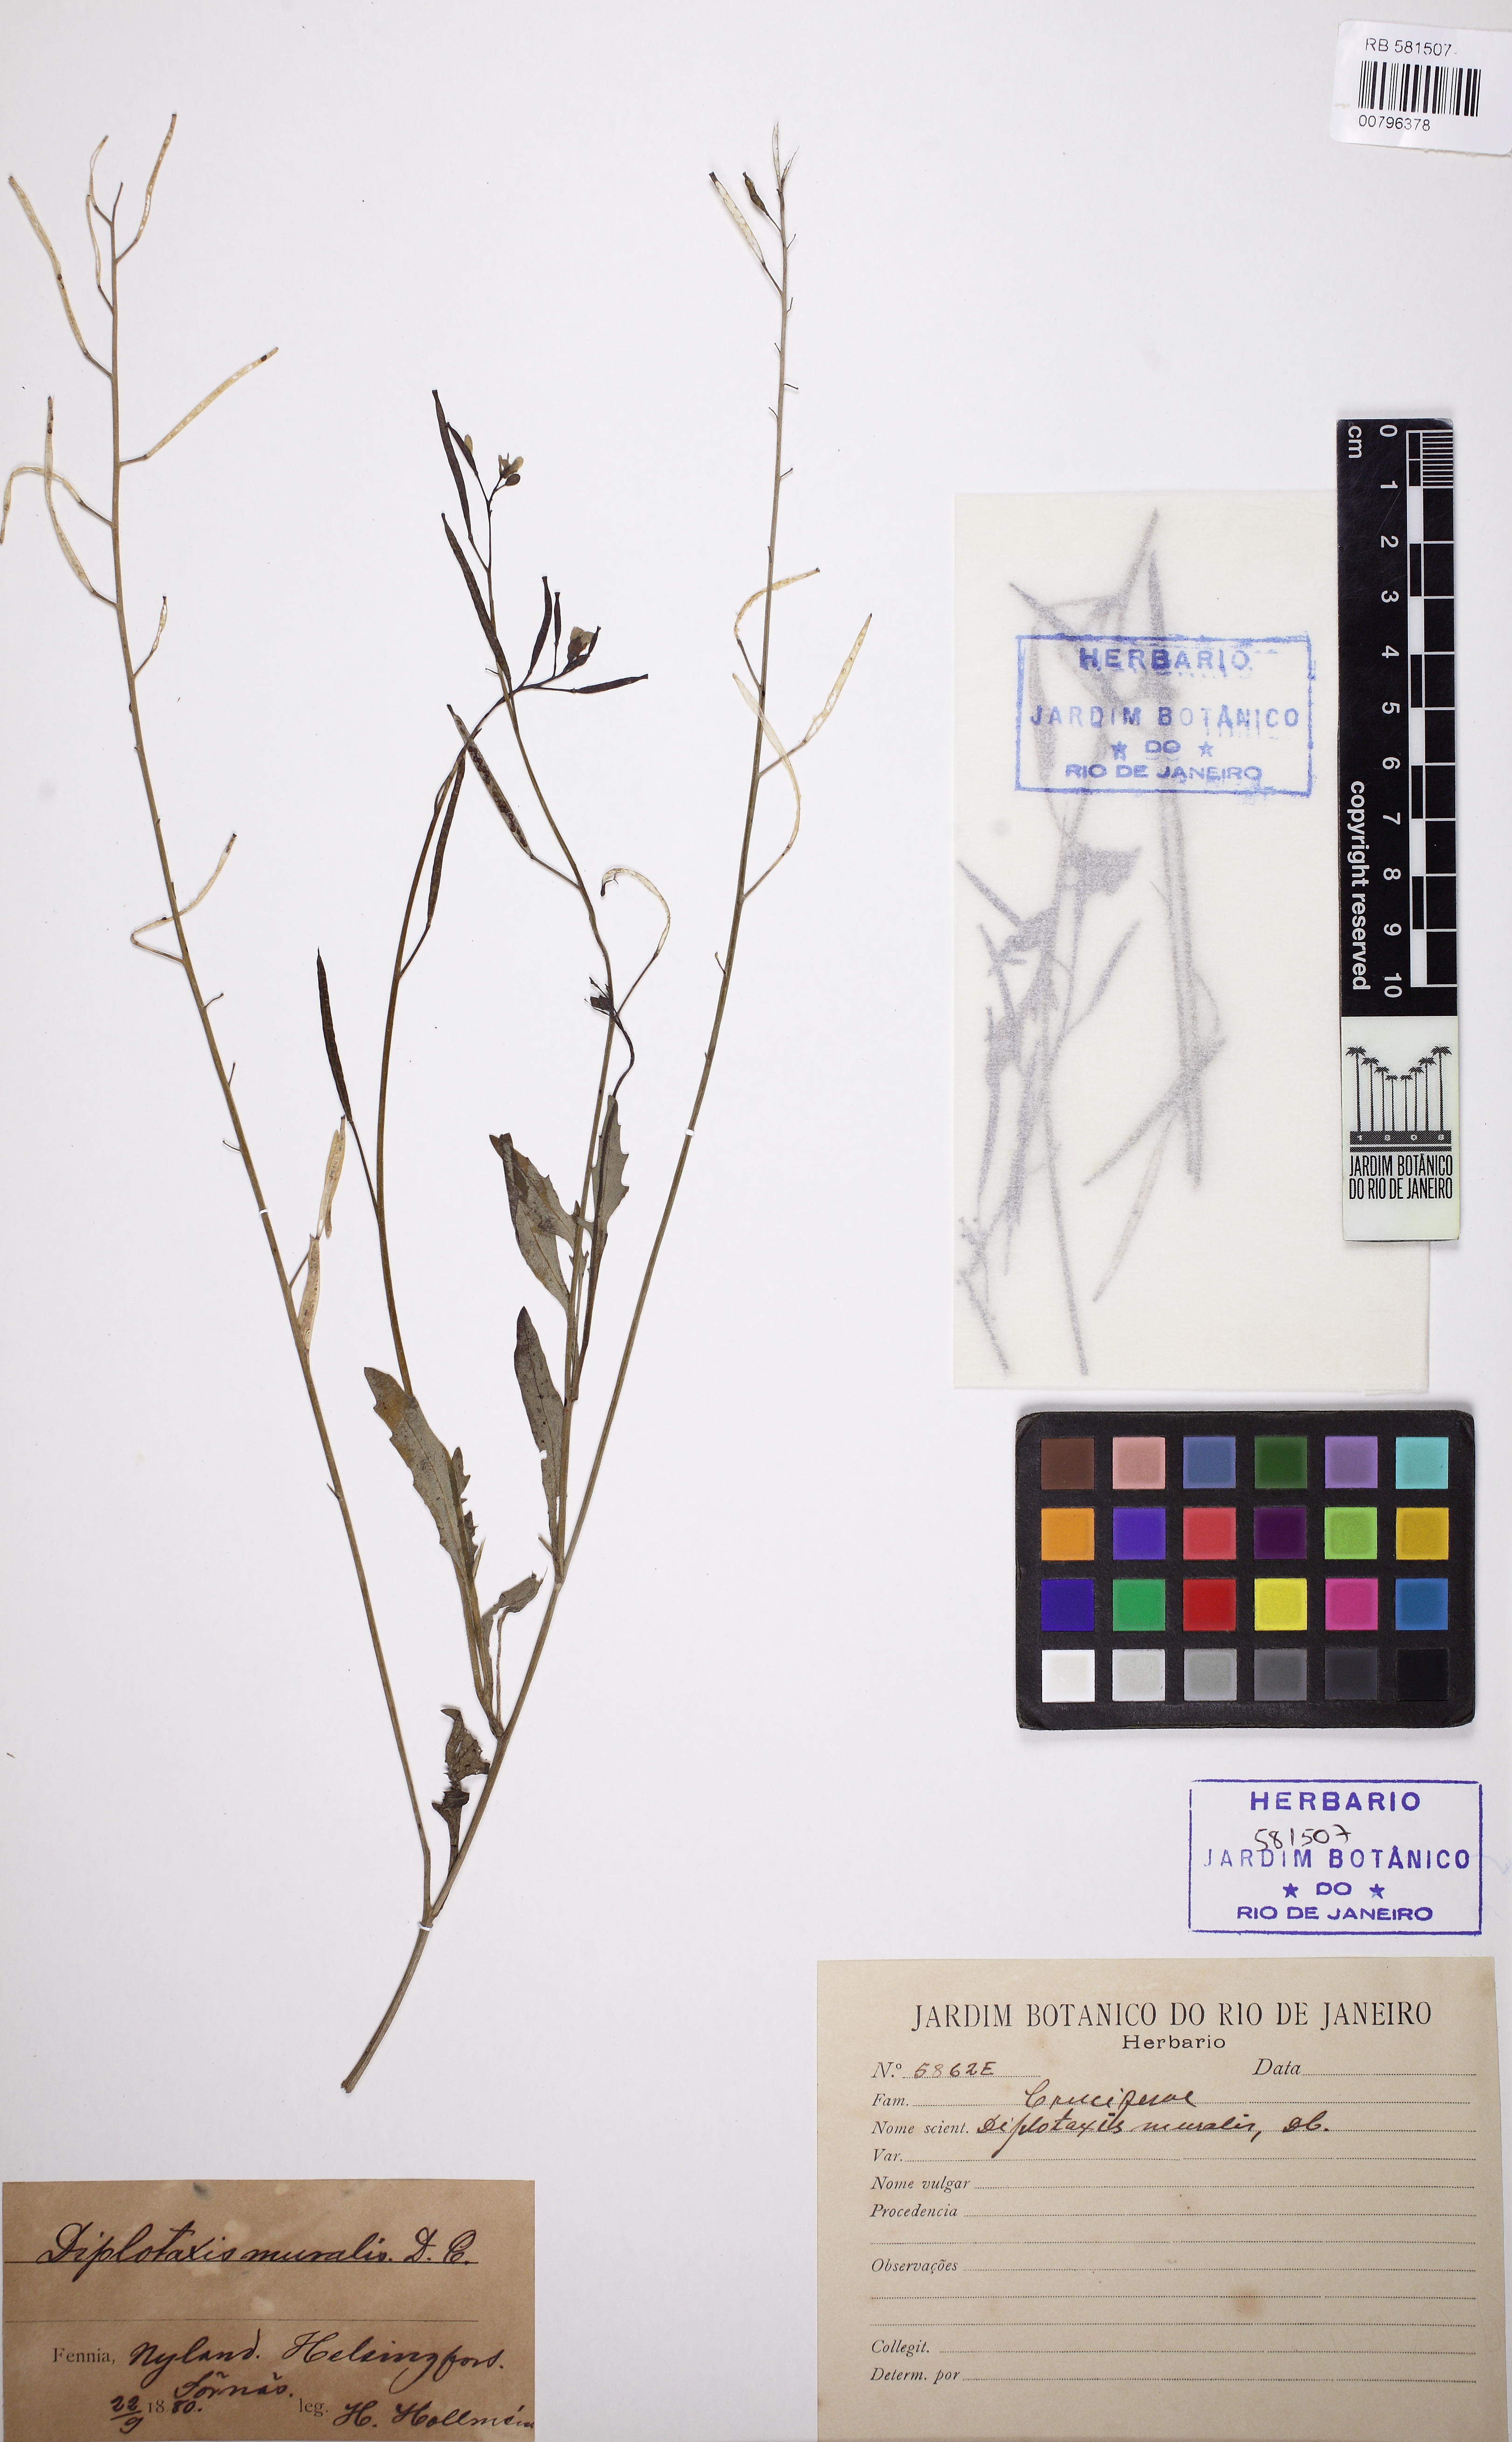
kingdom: Plantae
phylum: Tracheophyta
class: Magnoliopsida
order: Brassicales
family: Brassicaceae
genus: Diplotaxis
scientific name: Diplotaxis muralis
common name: Annual wall-rocket
